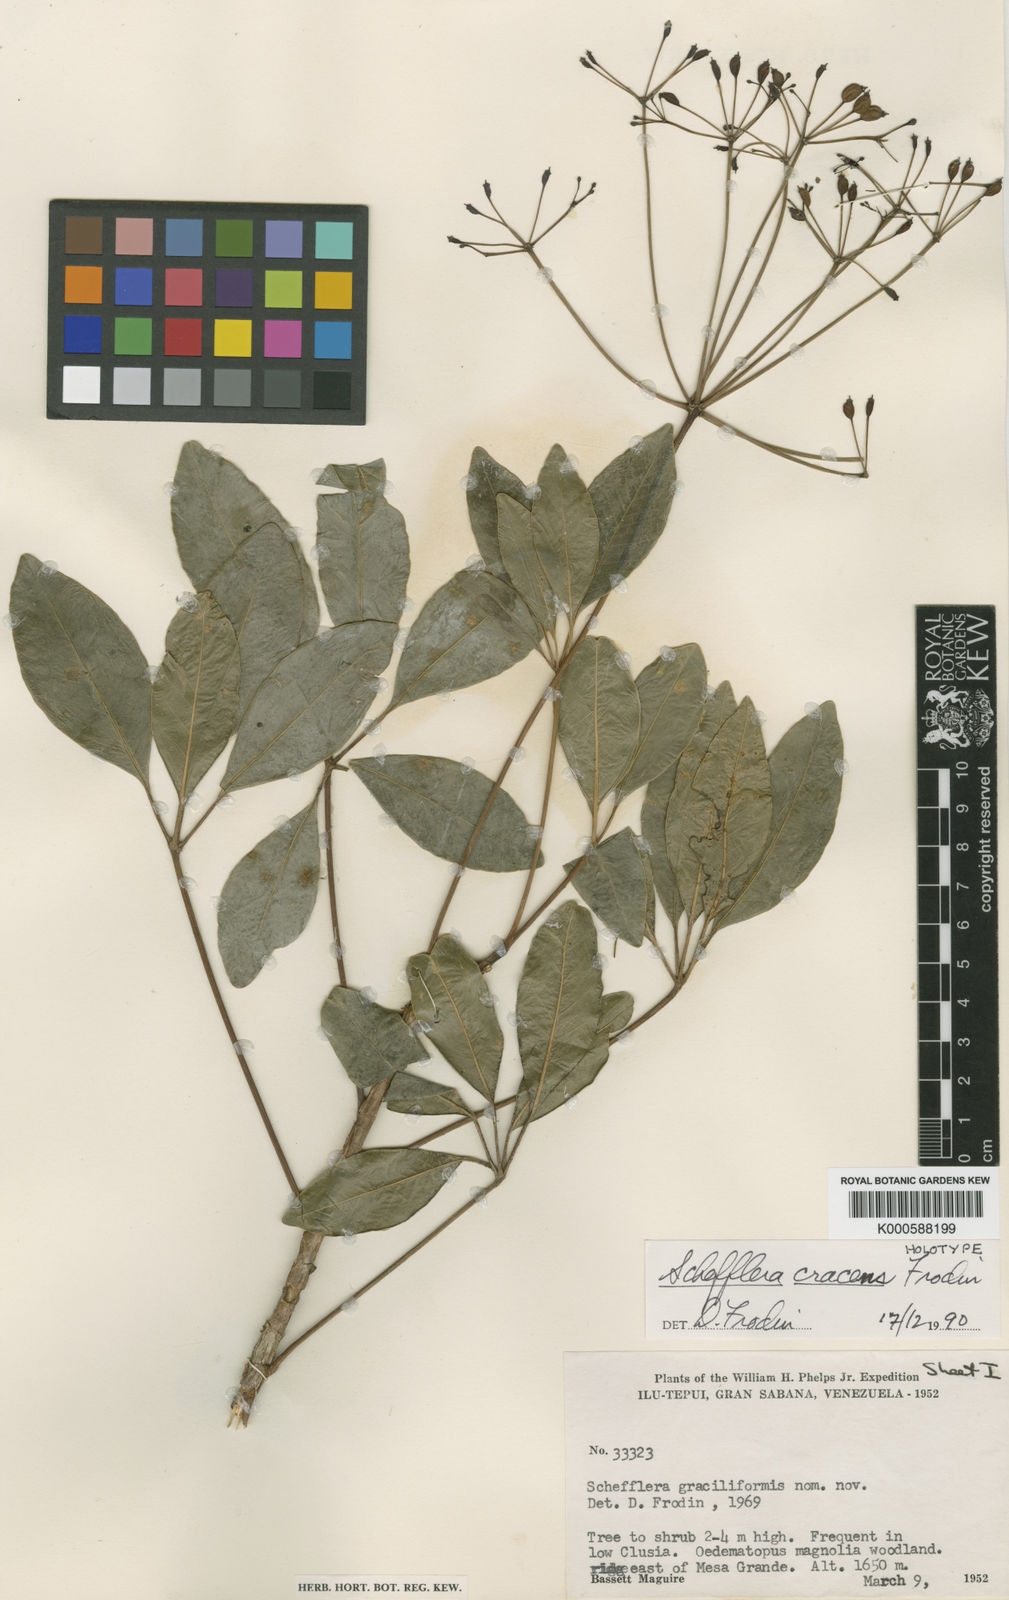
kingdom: Plantae
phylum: Tracheophyta
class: Magnoliopsida
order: Apiales
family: Araliaceae
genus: Sciodaphyllum
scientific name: Sciodaphyllum cracens
